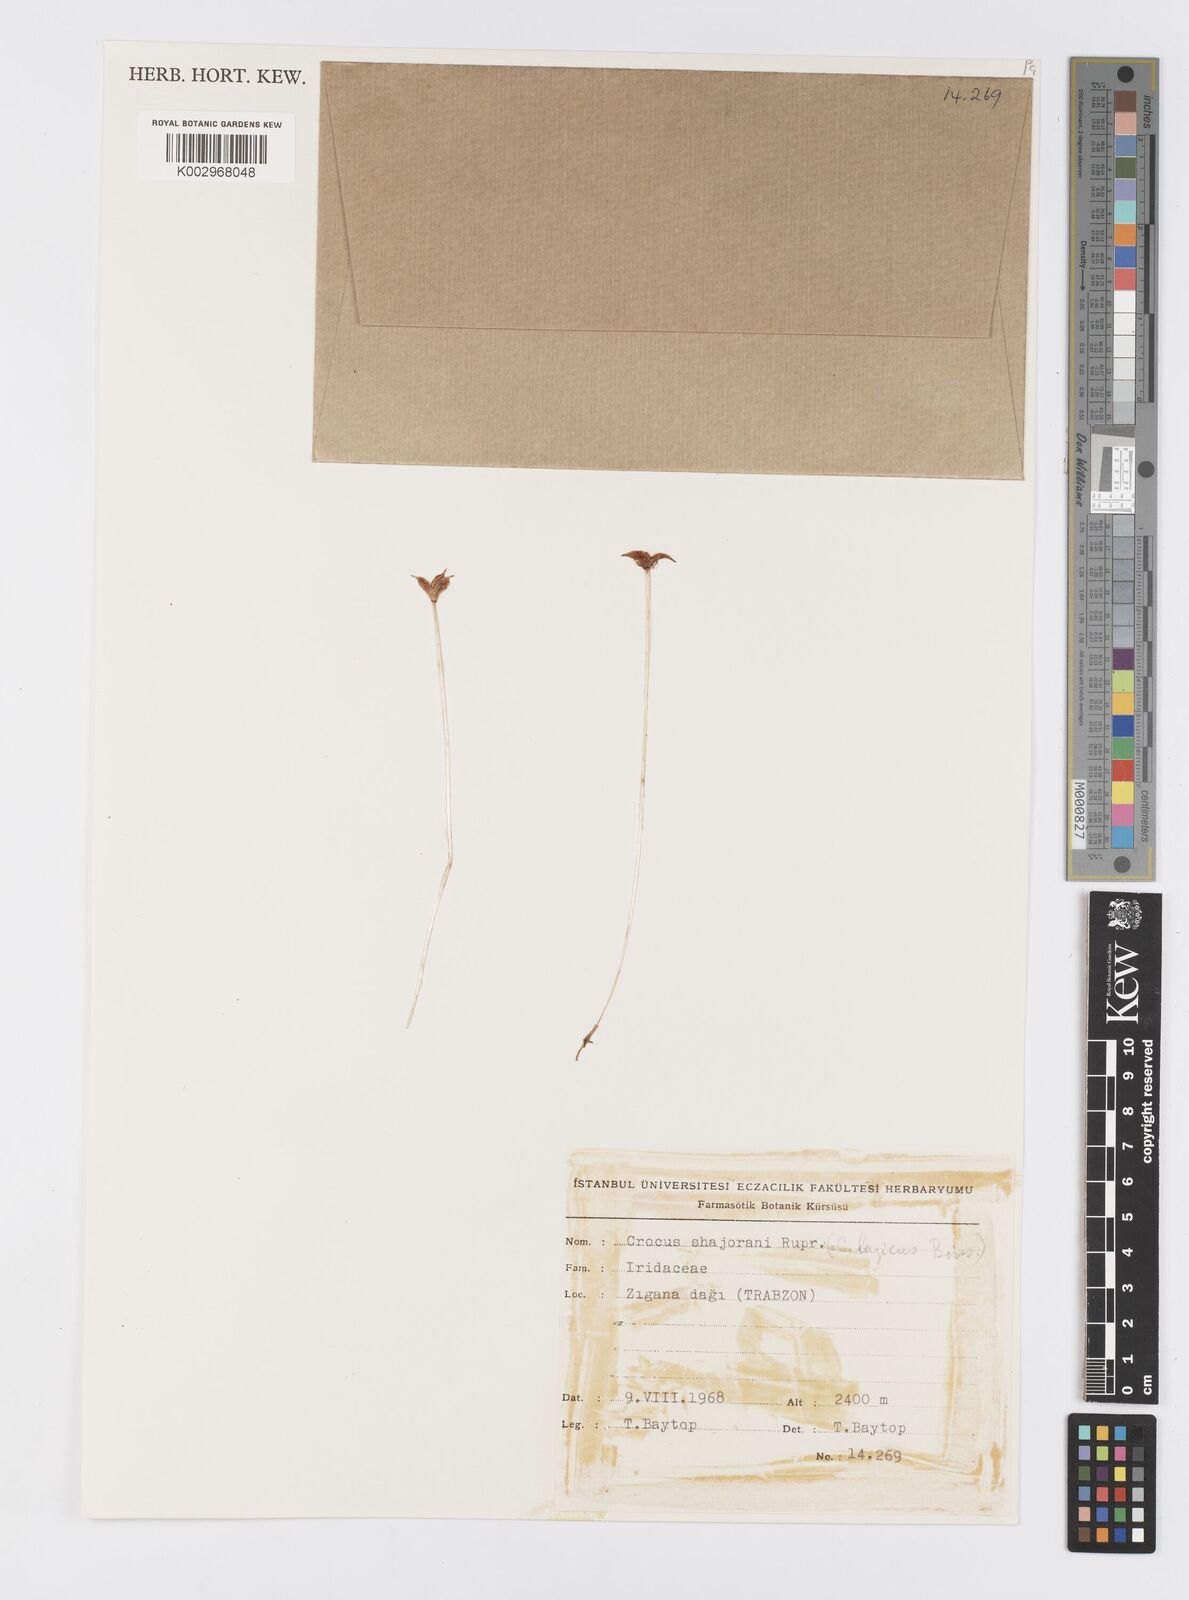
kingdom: Plantae
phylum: Tracheophyta
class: Liliopsida
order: Asparagales
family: Iridaceae
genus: Crocus
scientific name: Crocus lazicus
